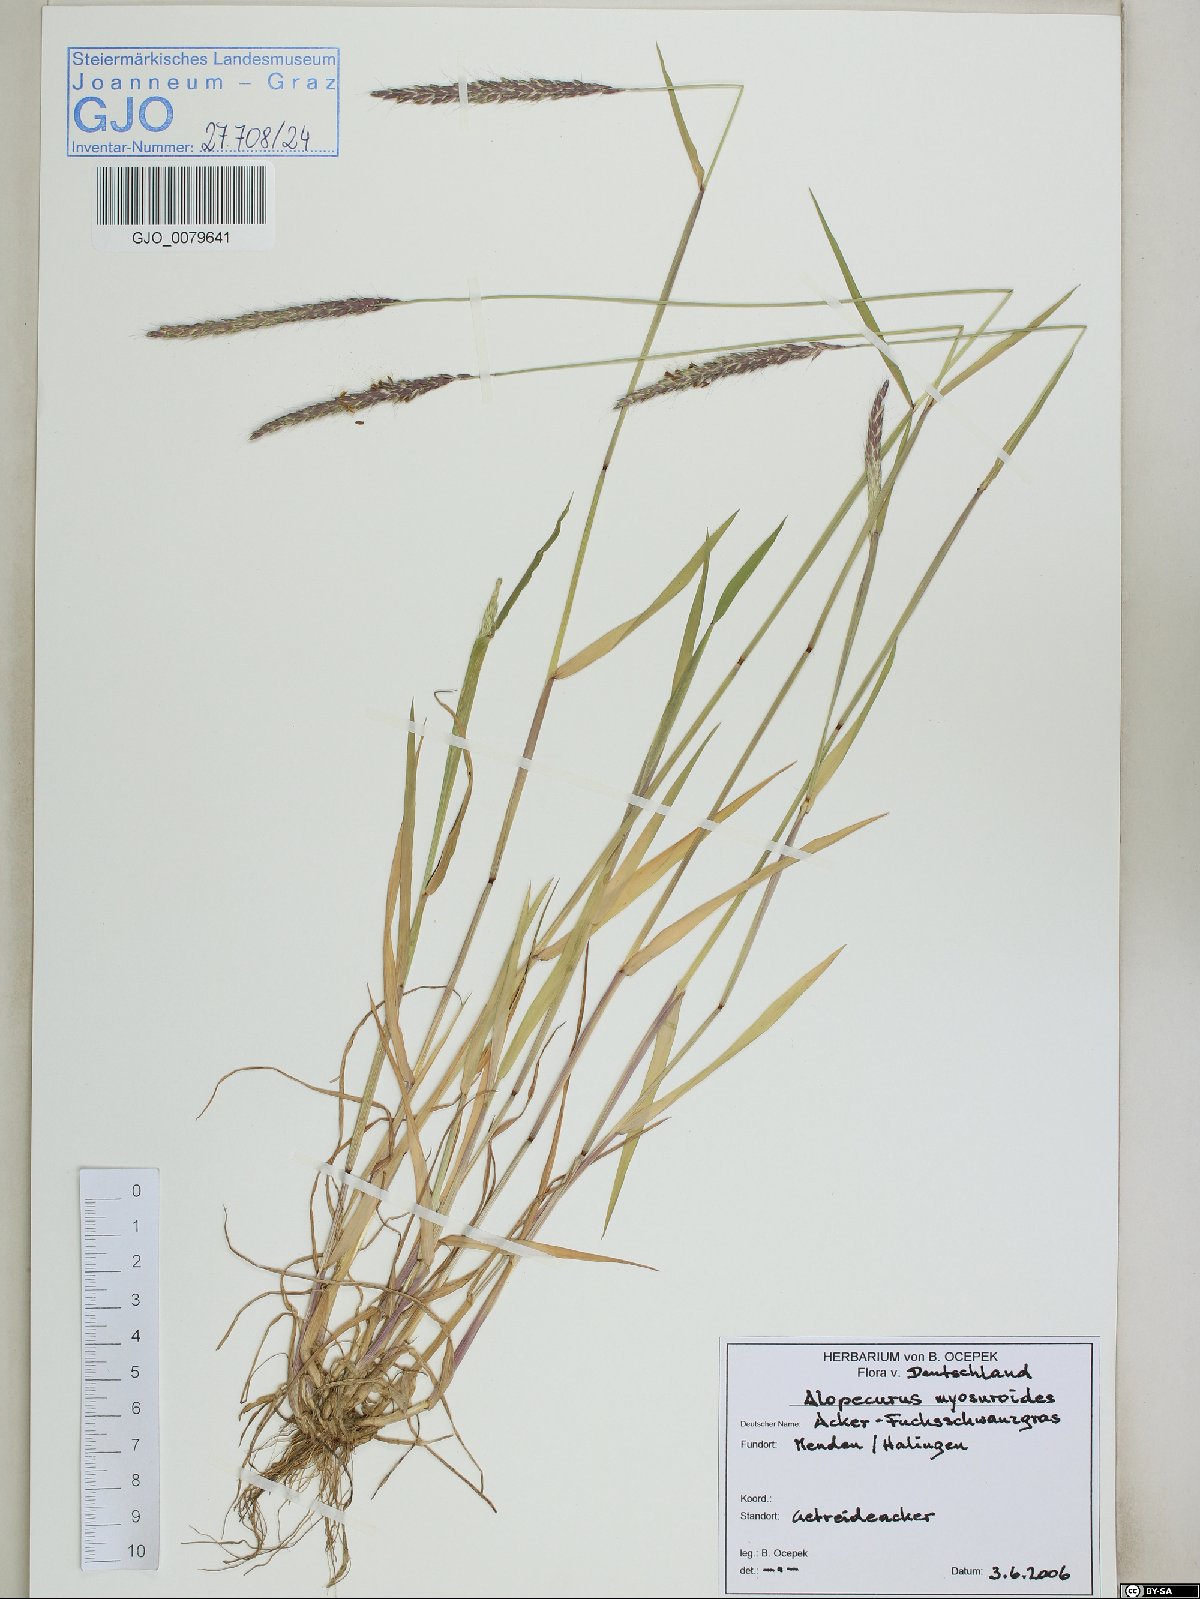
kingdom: Plantae
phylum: Tracheophyta
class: Liliopsida
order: Poales
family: Poaceae
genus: Alopecurus
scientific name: Alopecurus myosuroides
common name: Black-grass
